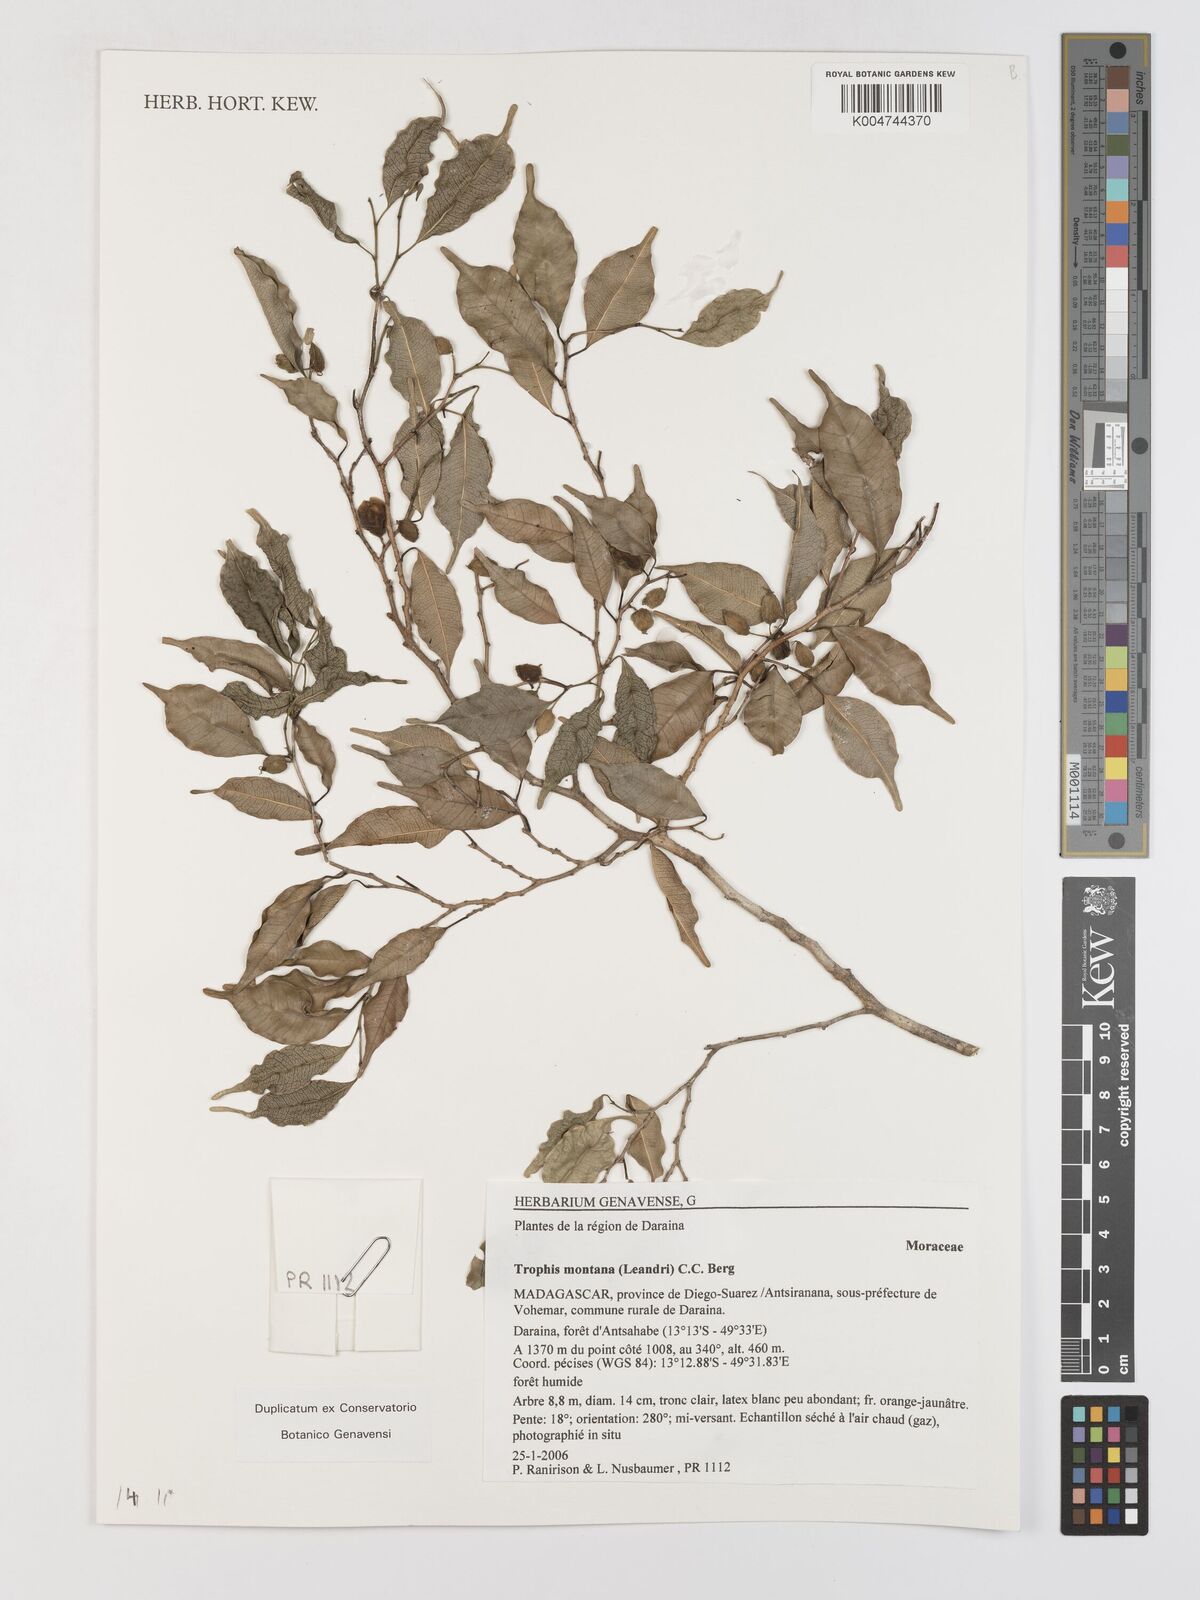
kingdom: Plantae
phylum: Tracheophyta
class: Magnoliopsida
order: Rosales
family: Moraceae
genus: Maillardia
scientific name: Maillardia montana
